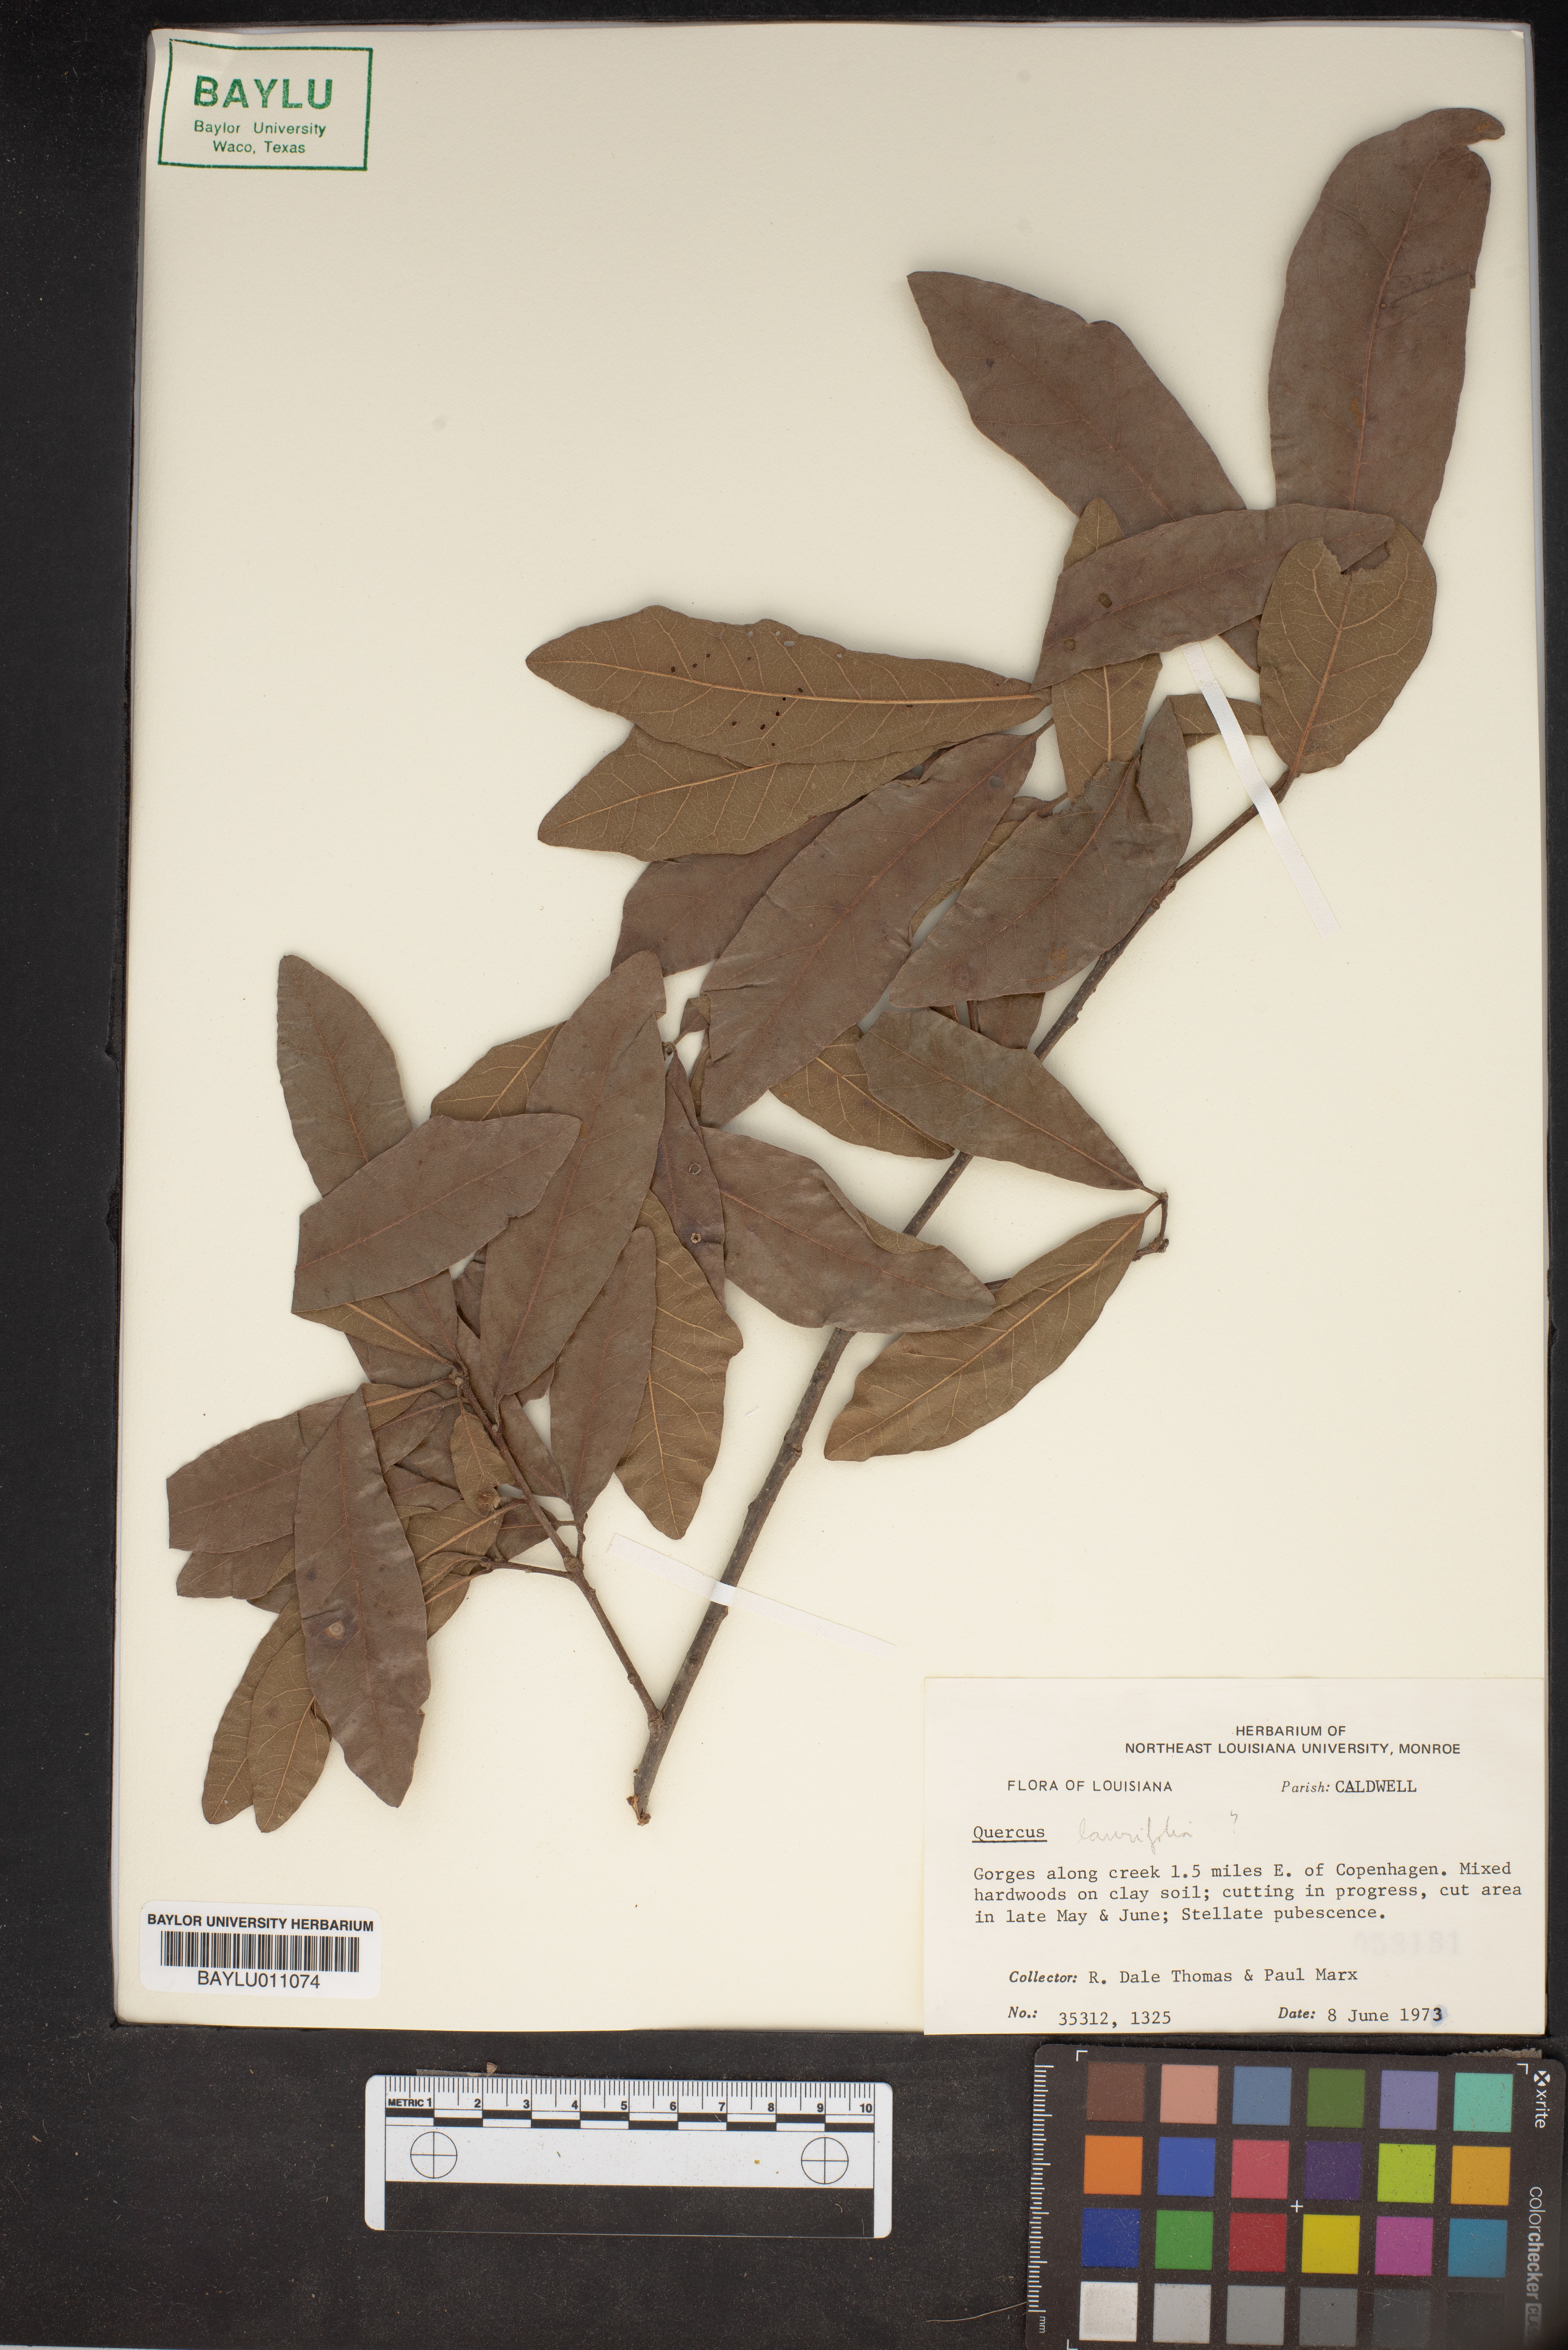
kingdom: Plantae
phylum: Tracheophyta
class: Magnoliopsida
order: Fagales
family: Fagaceae
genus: Quercus
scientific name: Quercus laurifolia
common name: Swamp laurel oak
